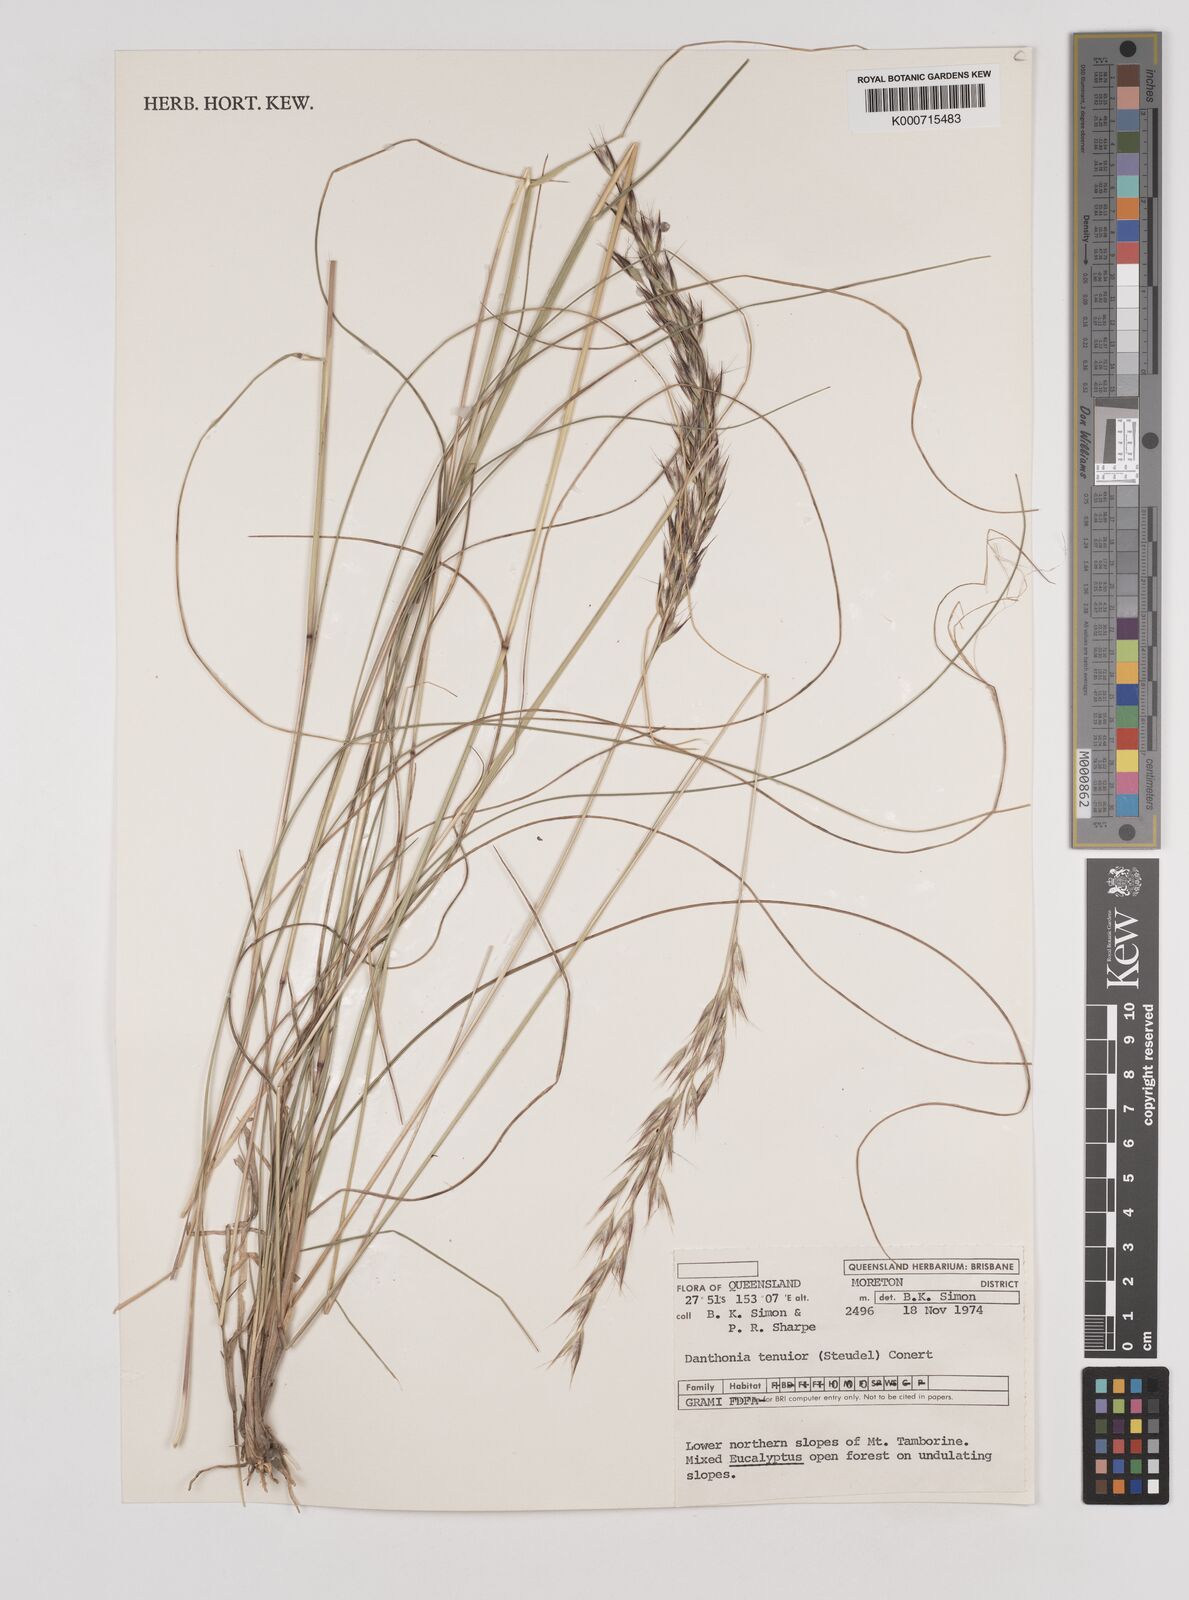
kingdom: Plantae
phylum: Tracheophyta
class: Liliopsida
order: Poales
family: Poaceae
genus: Rytidosperma
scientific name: Rytidosperma tenuius
